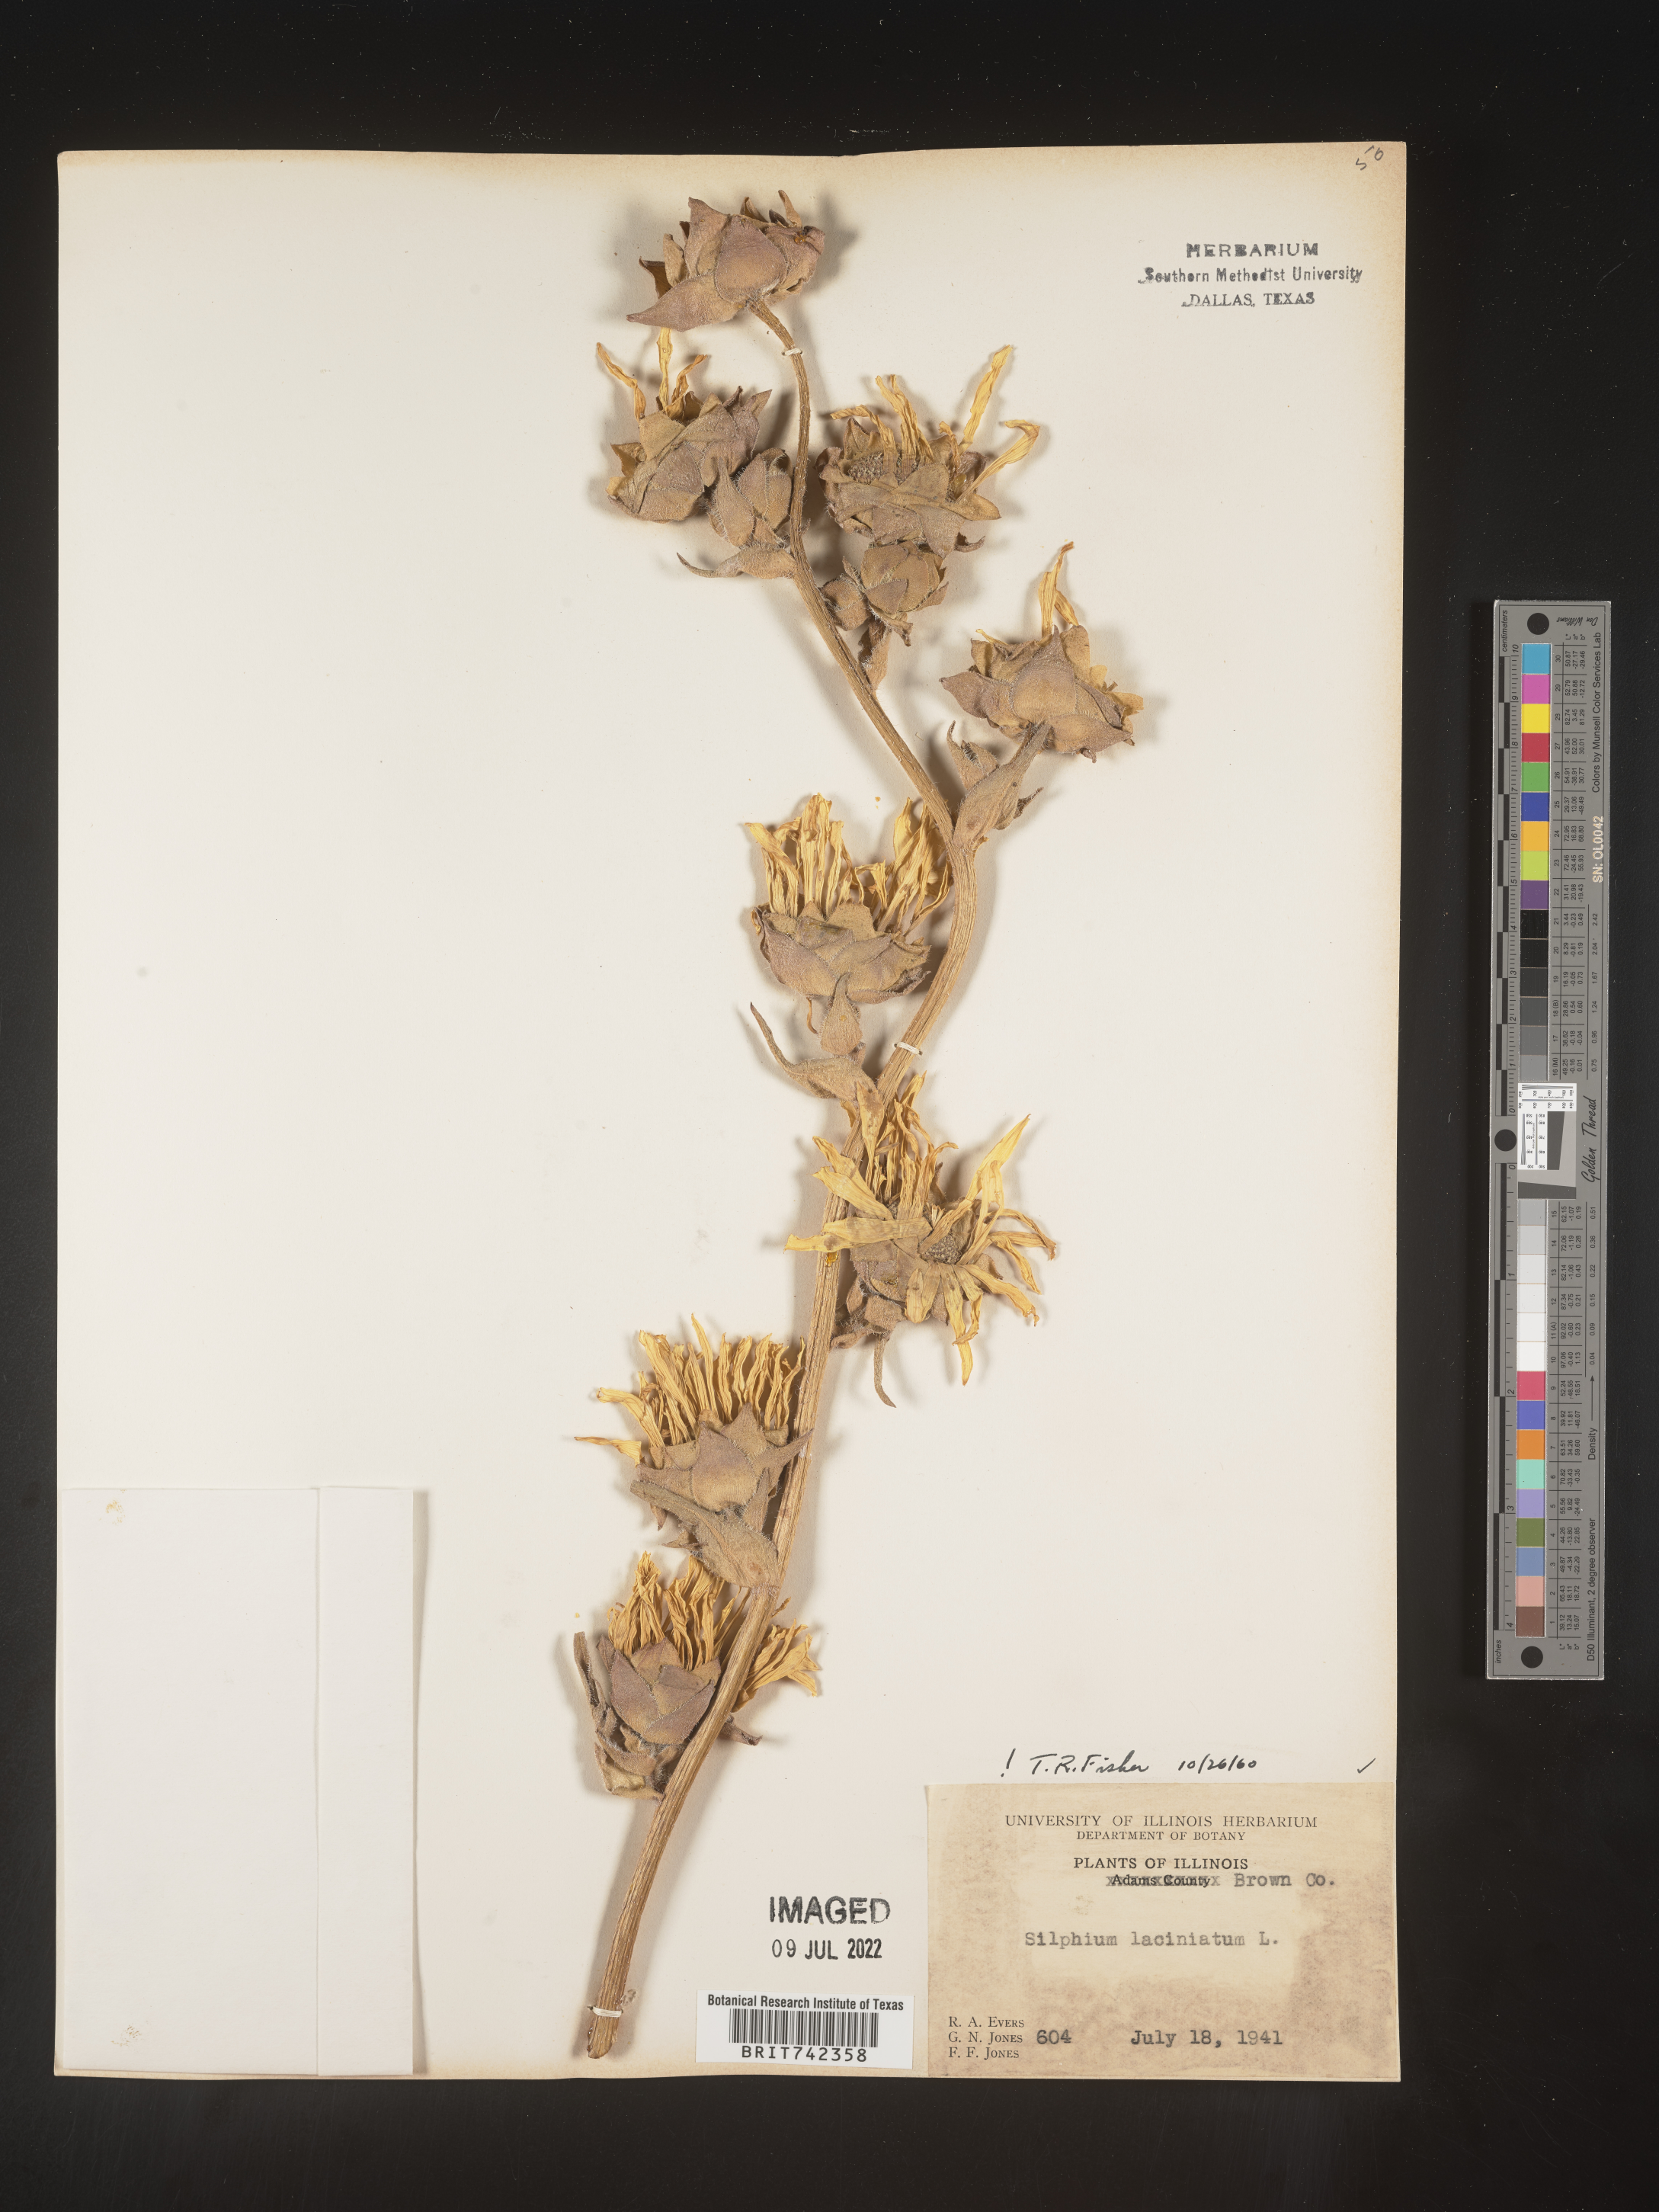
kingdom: Plantae
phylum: Tracheophyta
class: Magnoliopsida
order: Asterales
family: Asteraceae
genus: Silphium
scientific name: Silphium laciniatum
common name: Polarplant
